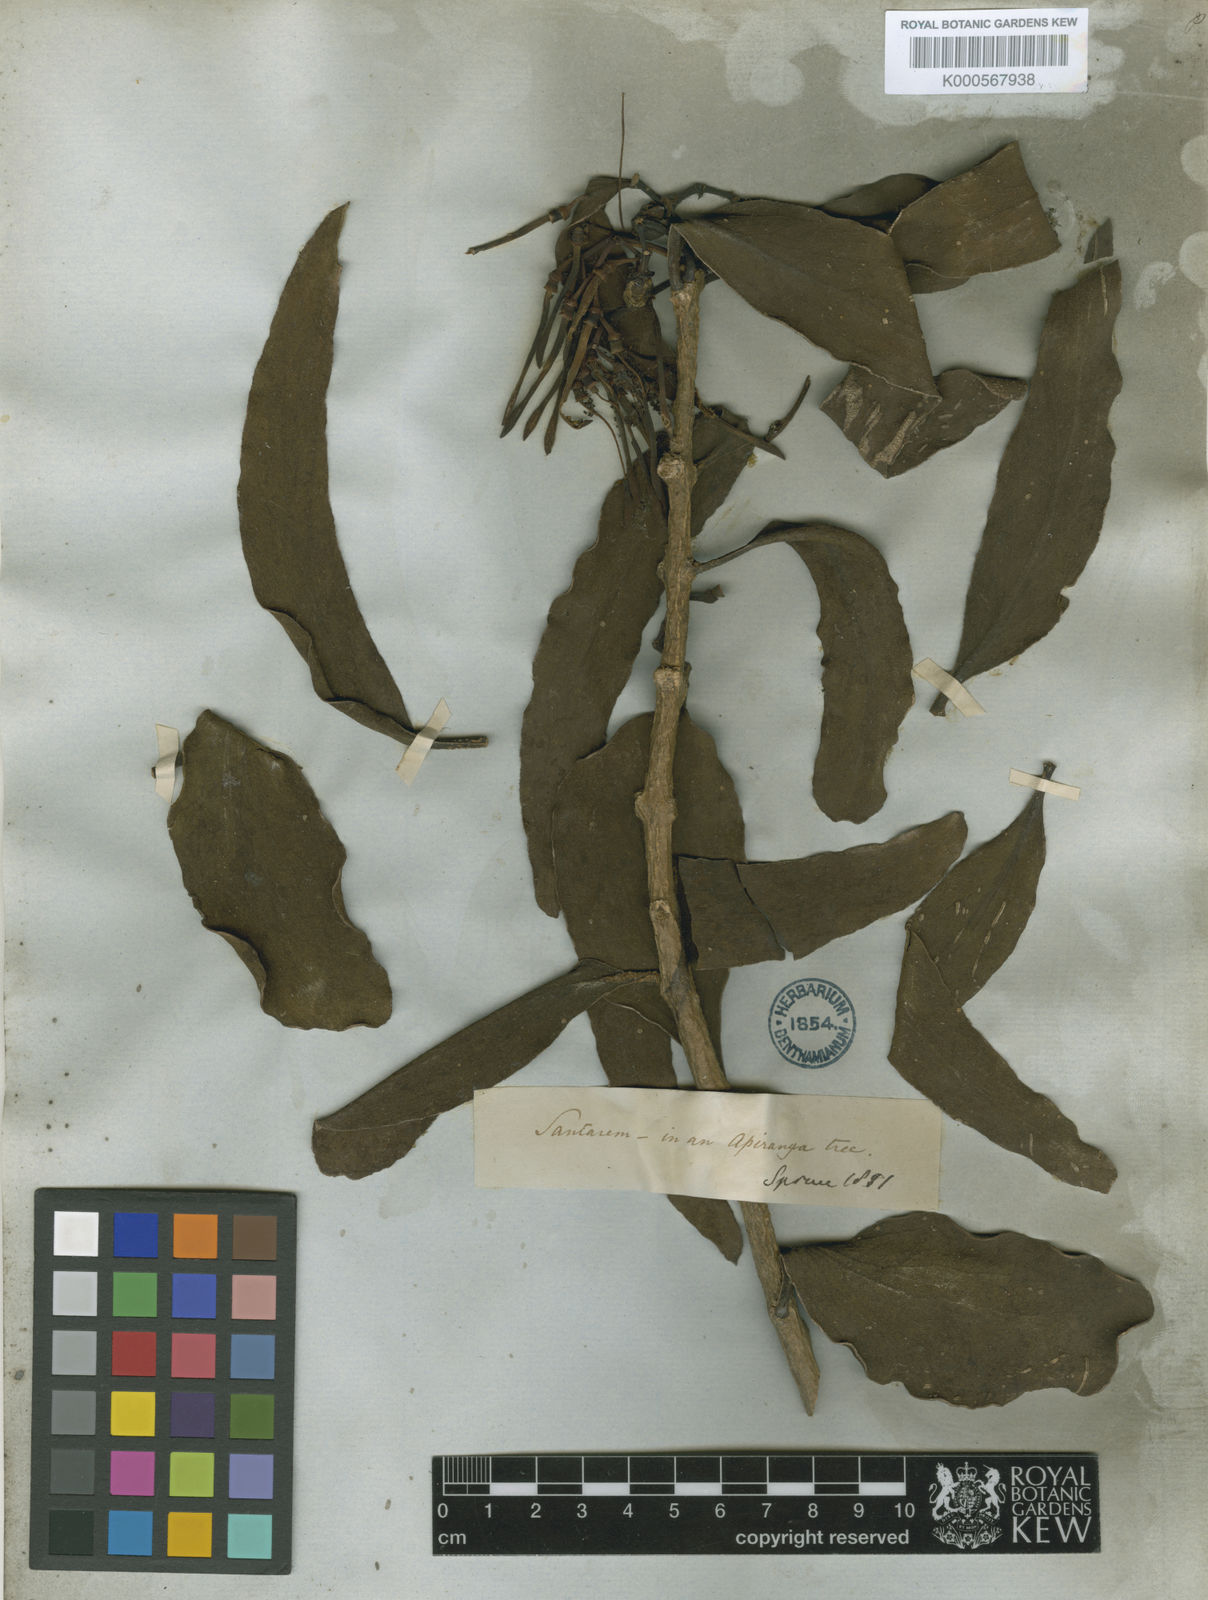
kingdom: Plantae
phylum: Tracheophyta
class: Magnoliopsida
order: Santalales
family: Loranthaceae
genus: Psittacanthus
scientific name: Psittacanthus robustus
